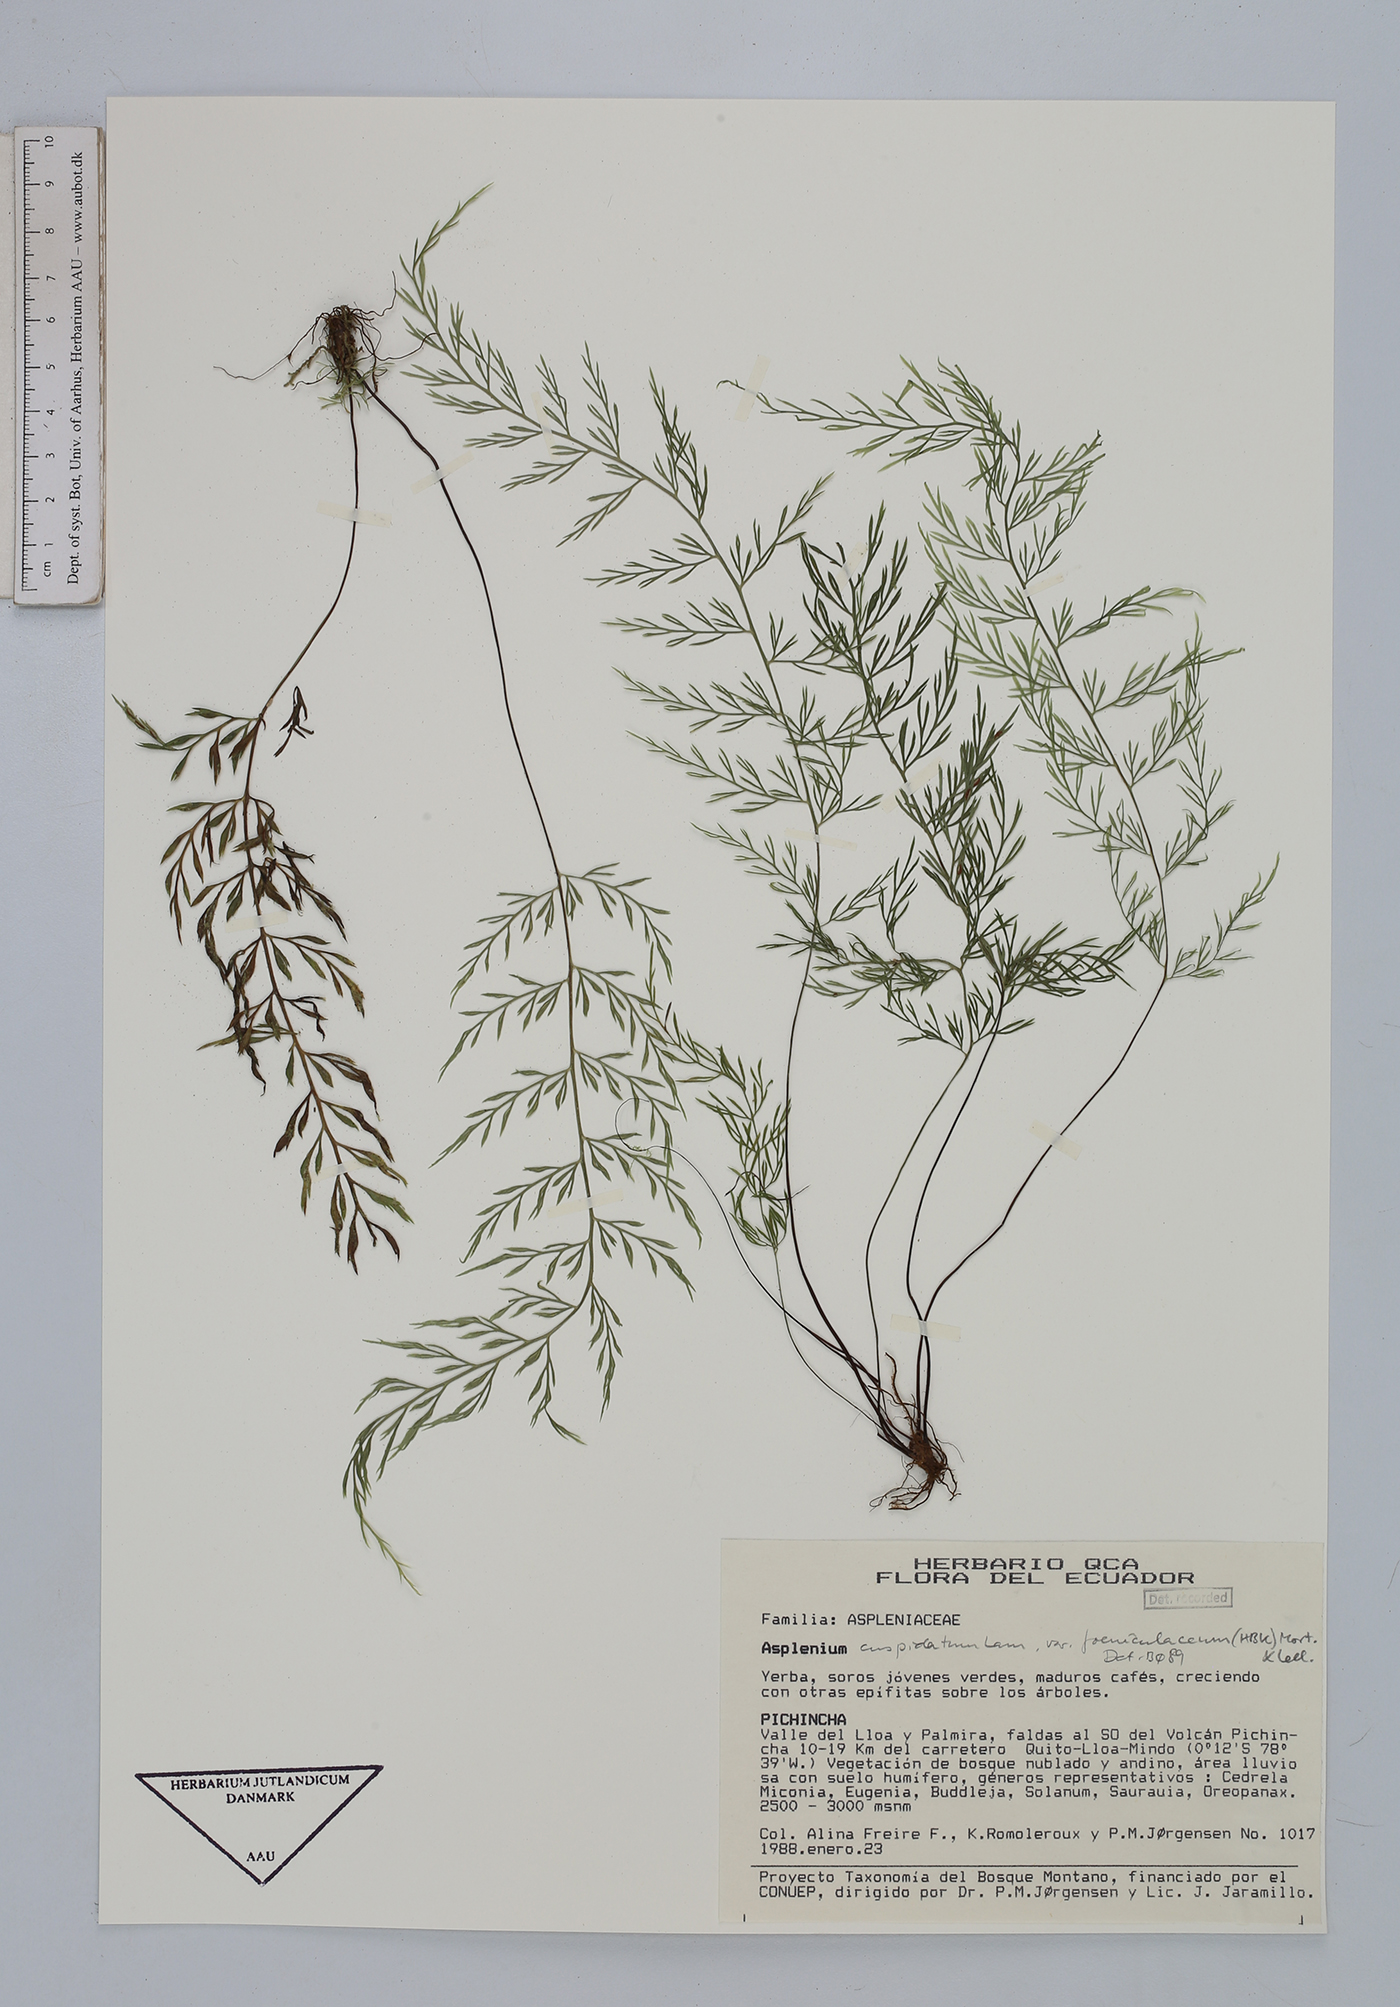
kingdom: Plantae
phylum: Tracheophyta
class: Polypodiopsida
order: Polypodiales
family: Aspleniaceae
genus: Asplenium
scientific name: Asplenium fragrans
